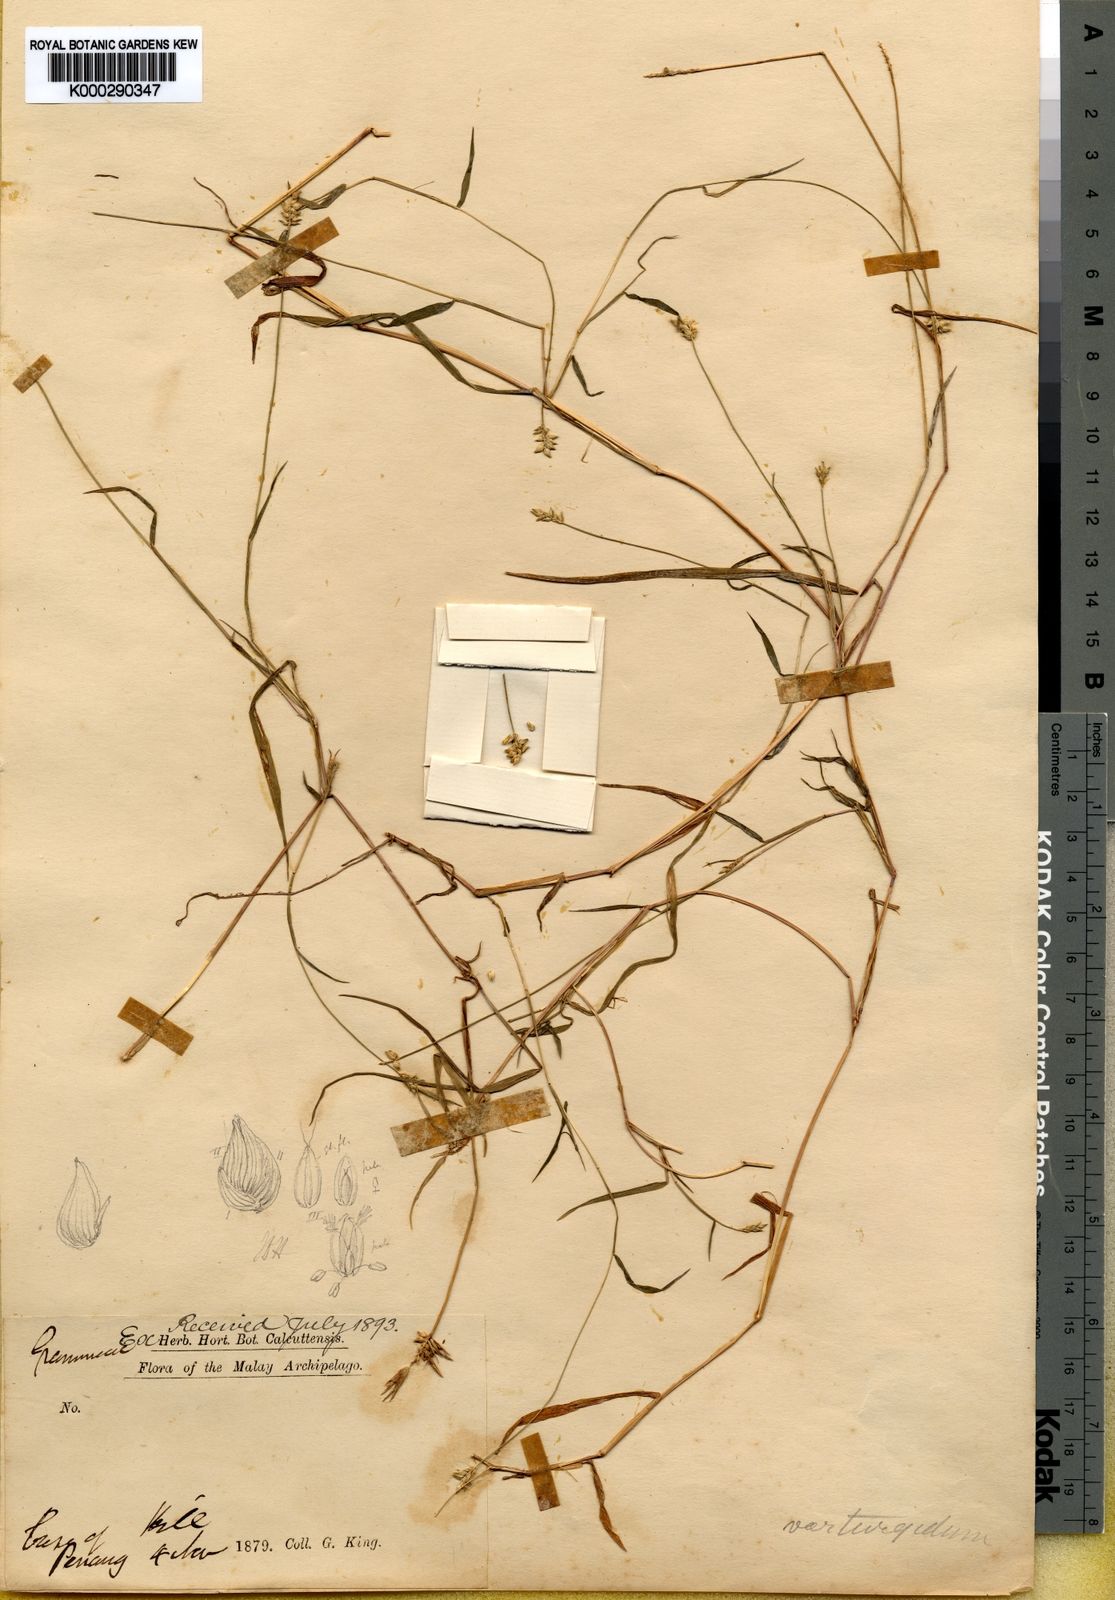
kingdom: Plantae
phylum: Tracheophyta
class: Liliopsida
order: Poales
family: Poaceae
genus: Sacciolepis
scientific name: Sacciolepis indica
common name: Glenwoodgrass
